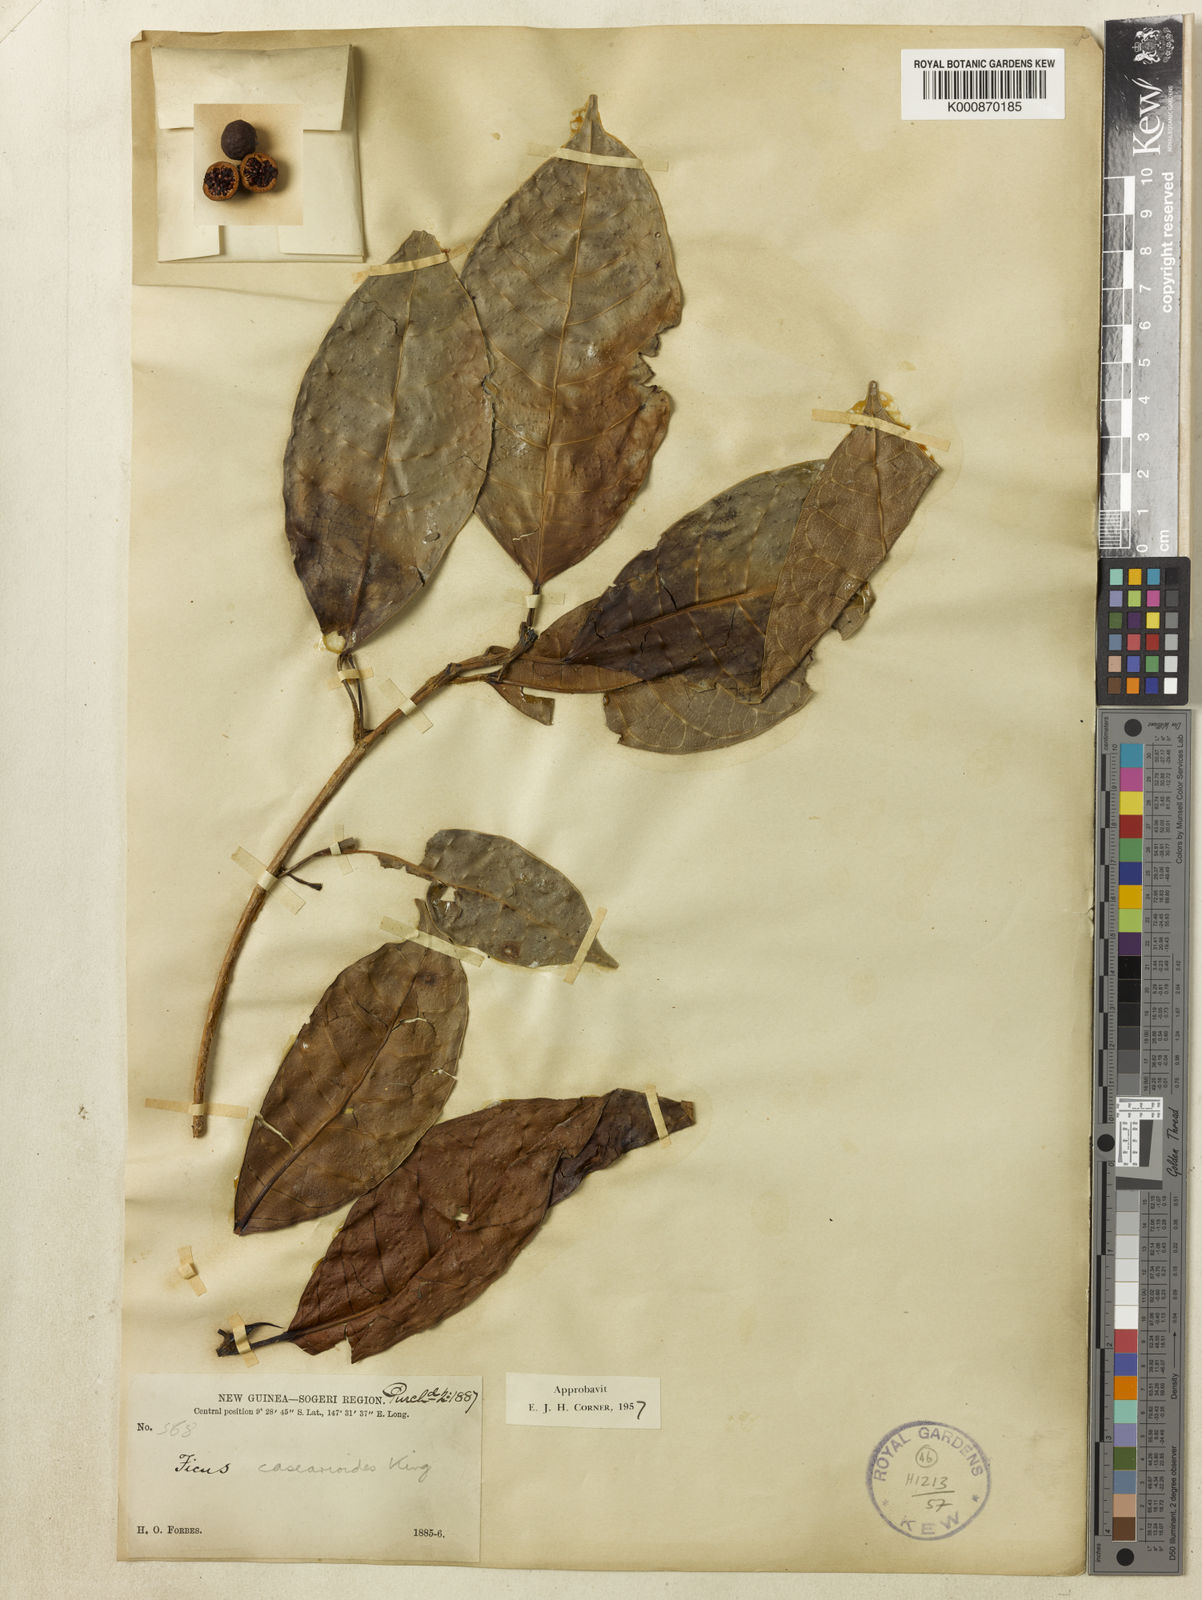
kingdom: Plantae
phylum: Tracheophyta
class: Magnoliopsida
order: Rosales
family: Moraceae
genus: Ficus
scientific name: Ficus casearioides
